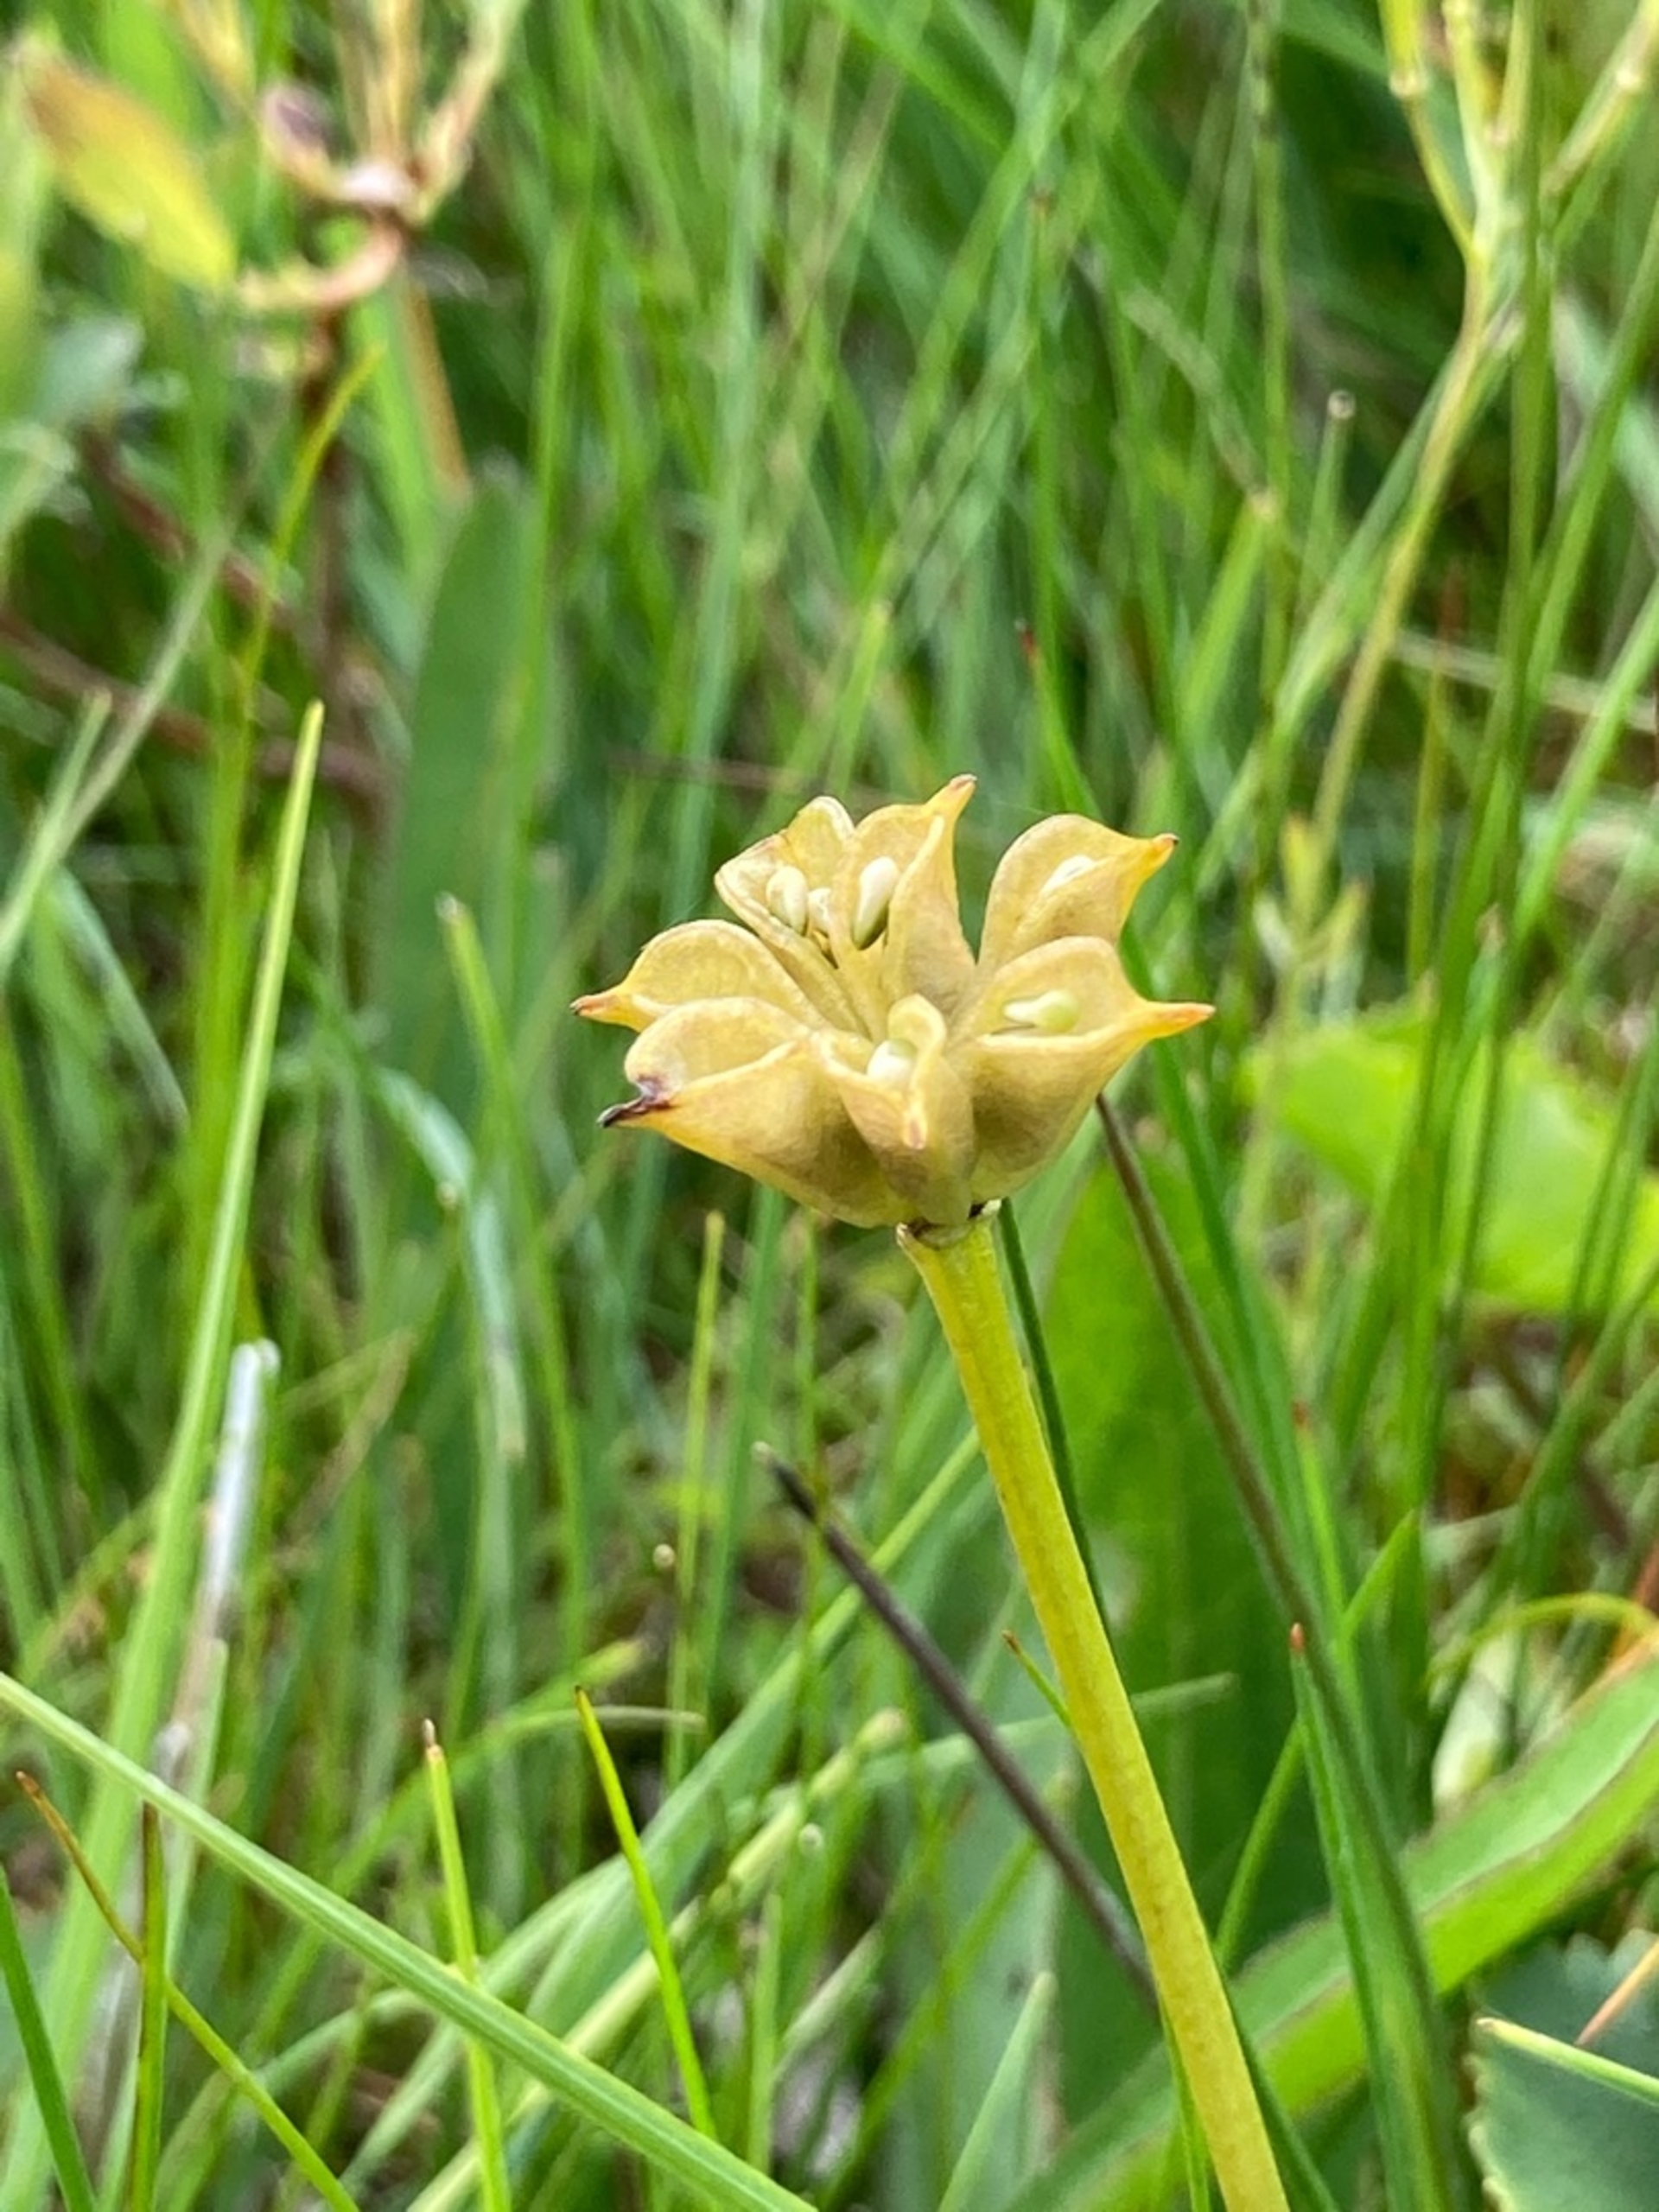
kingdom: Plantae
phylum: Tracheophyta
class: Magnoliopsida
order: Ranunculales
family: Ranunculaceae
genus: Caltha
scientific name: Caltha palustris
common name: Eng-kabbeleje
